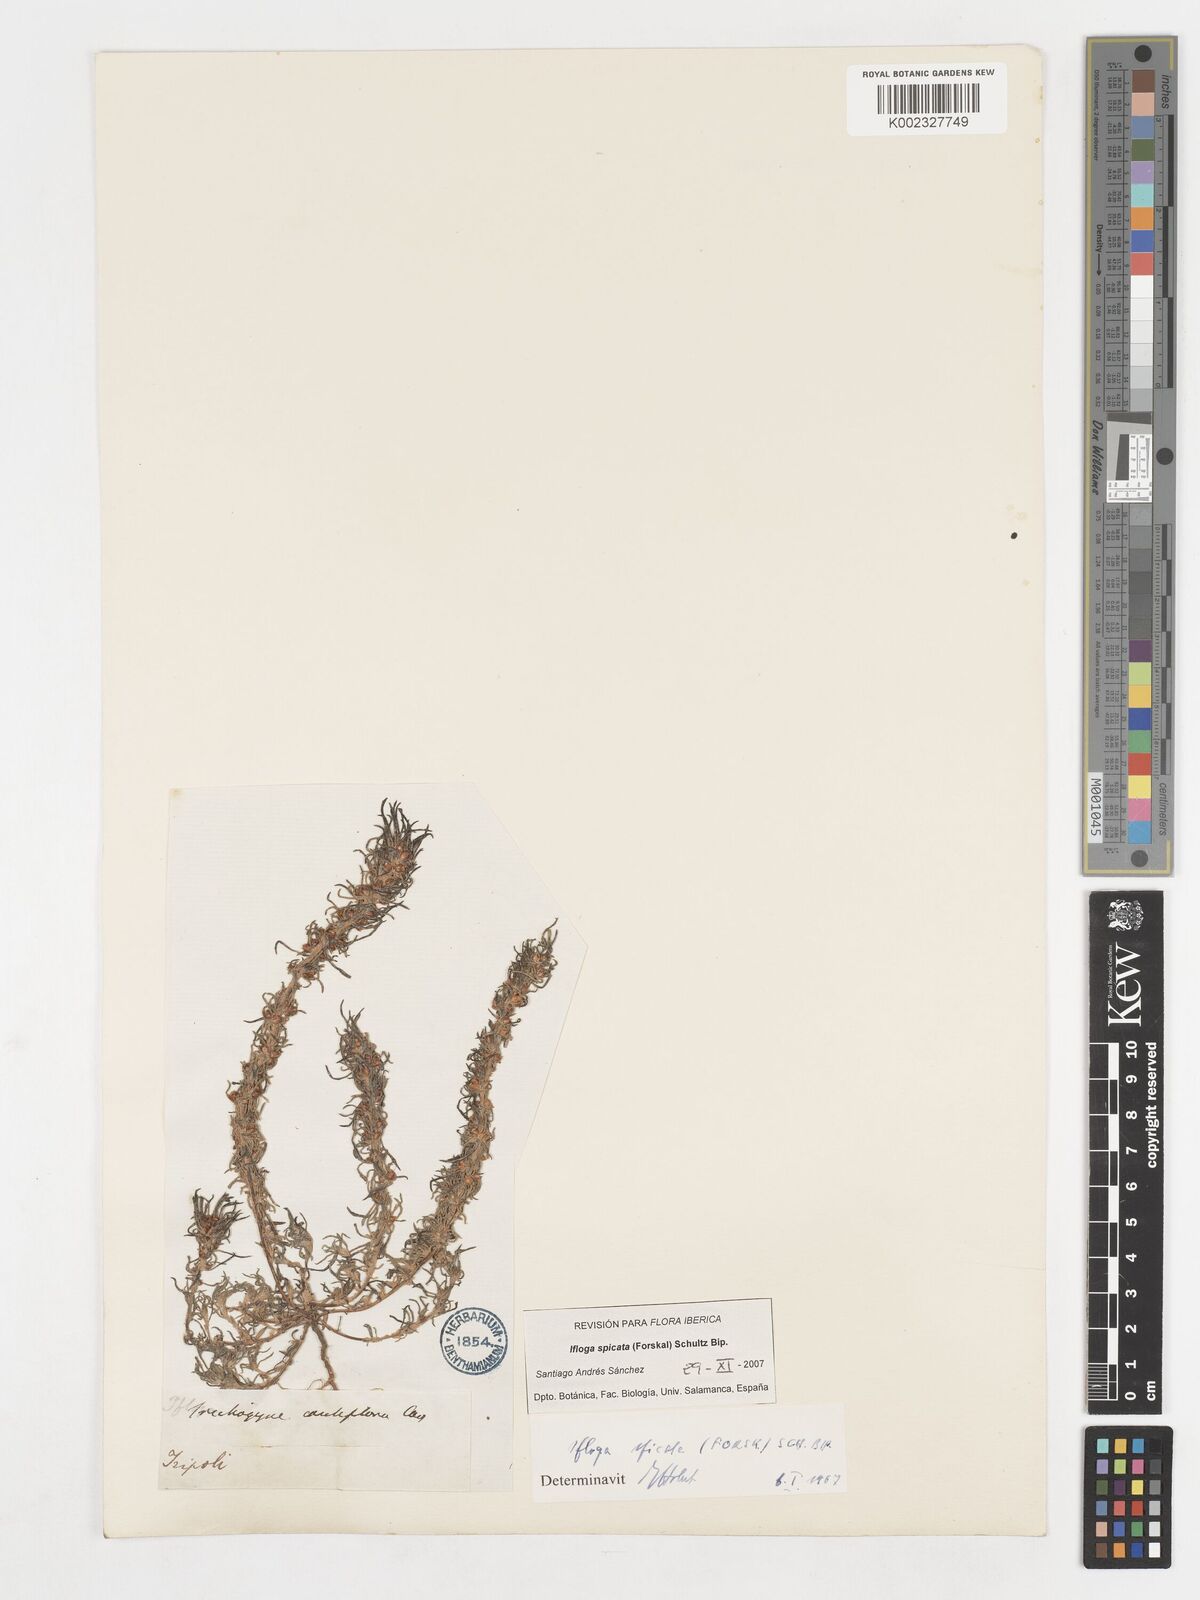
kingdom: Plantae
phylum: Tracheophyta
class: Magnoliopsida
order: Asterales
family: Asteraceae
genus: Ifloga
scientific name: Ifloga spicata
